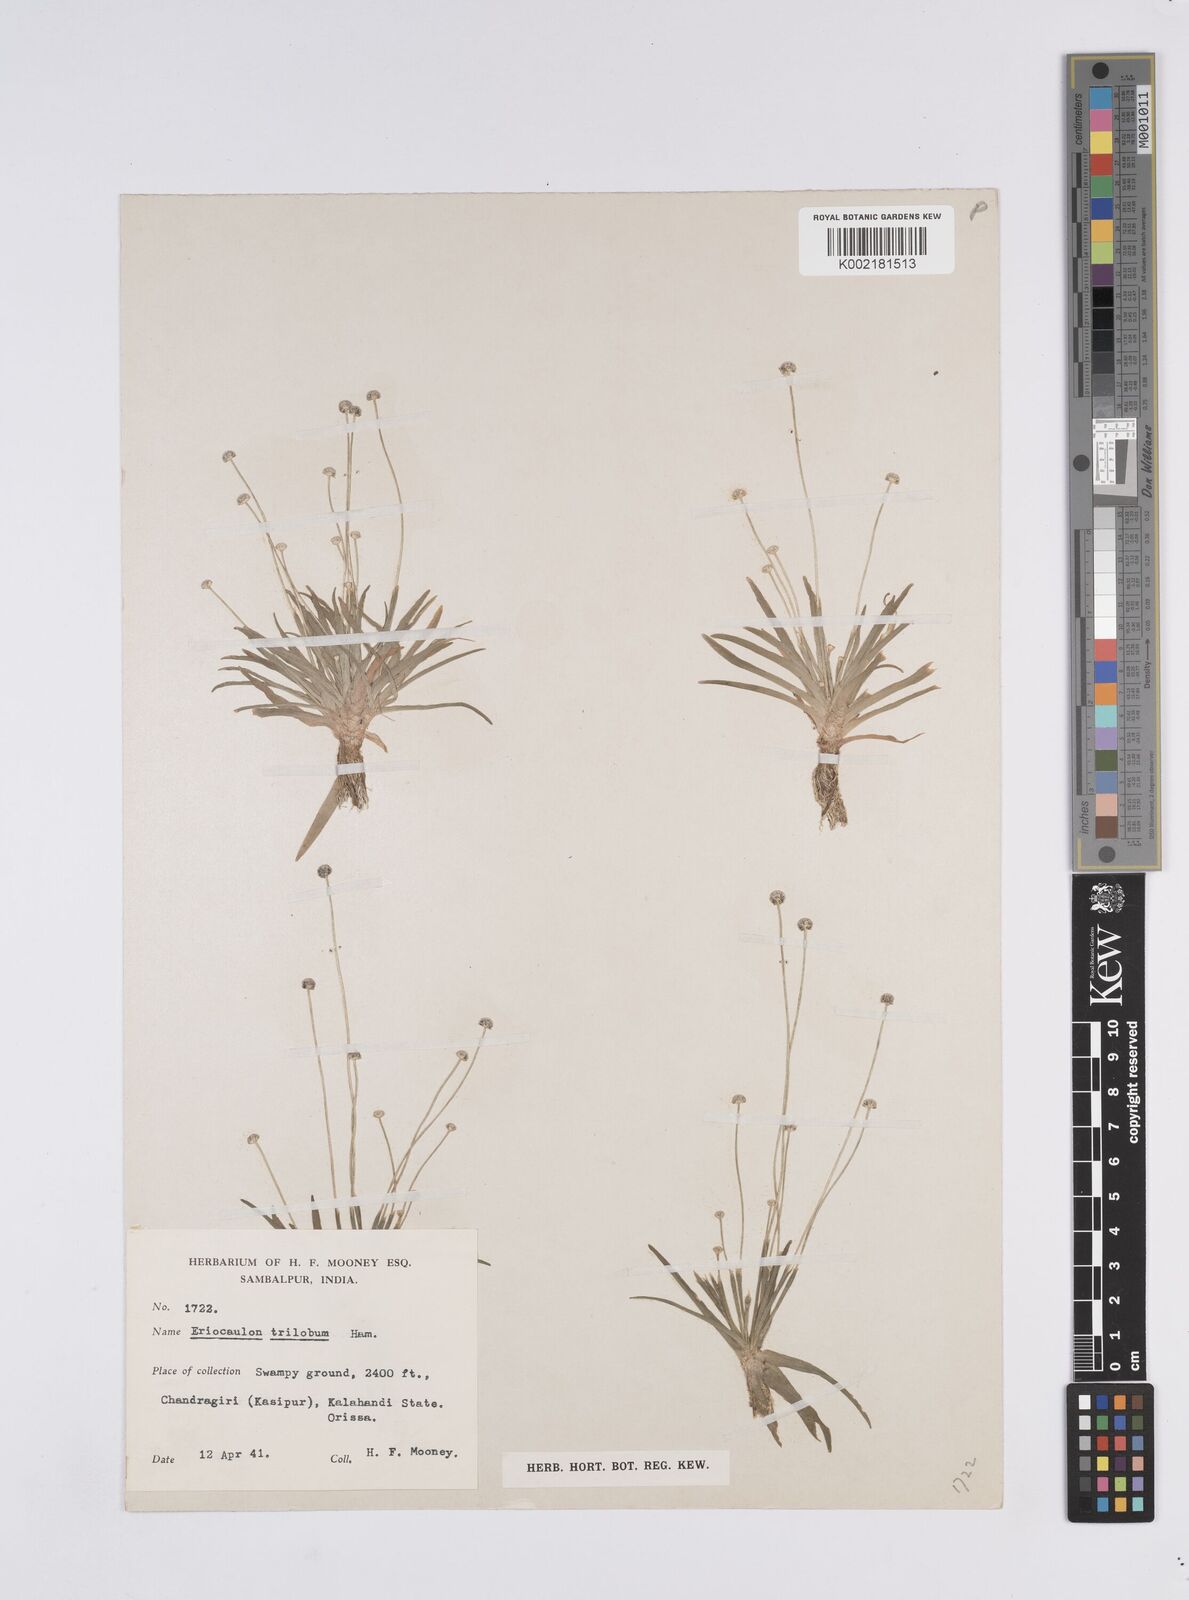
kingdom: Plantae
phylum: Tracheophyta
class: Liliopsida
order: Poales
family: Eriocaulaceae
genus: Eriocaulon
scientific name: Eriocaulon sollyanum
